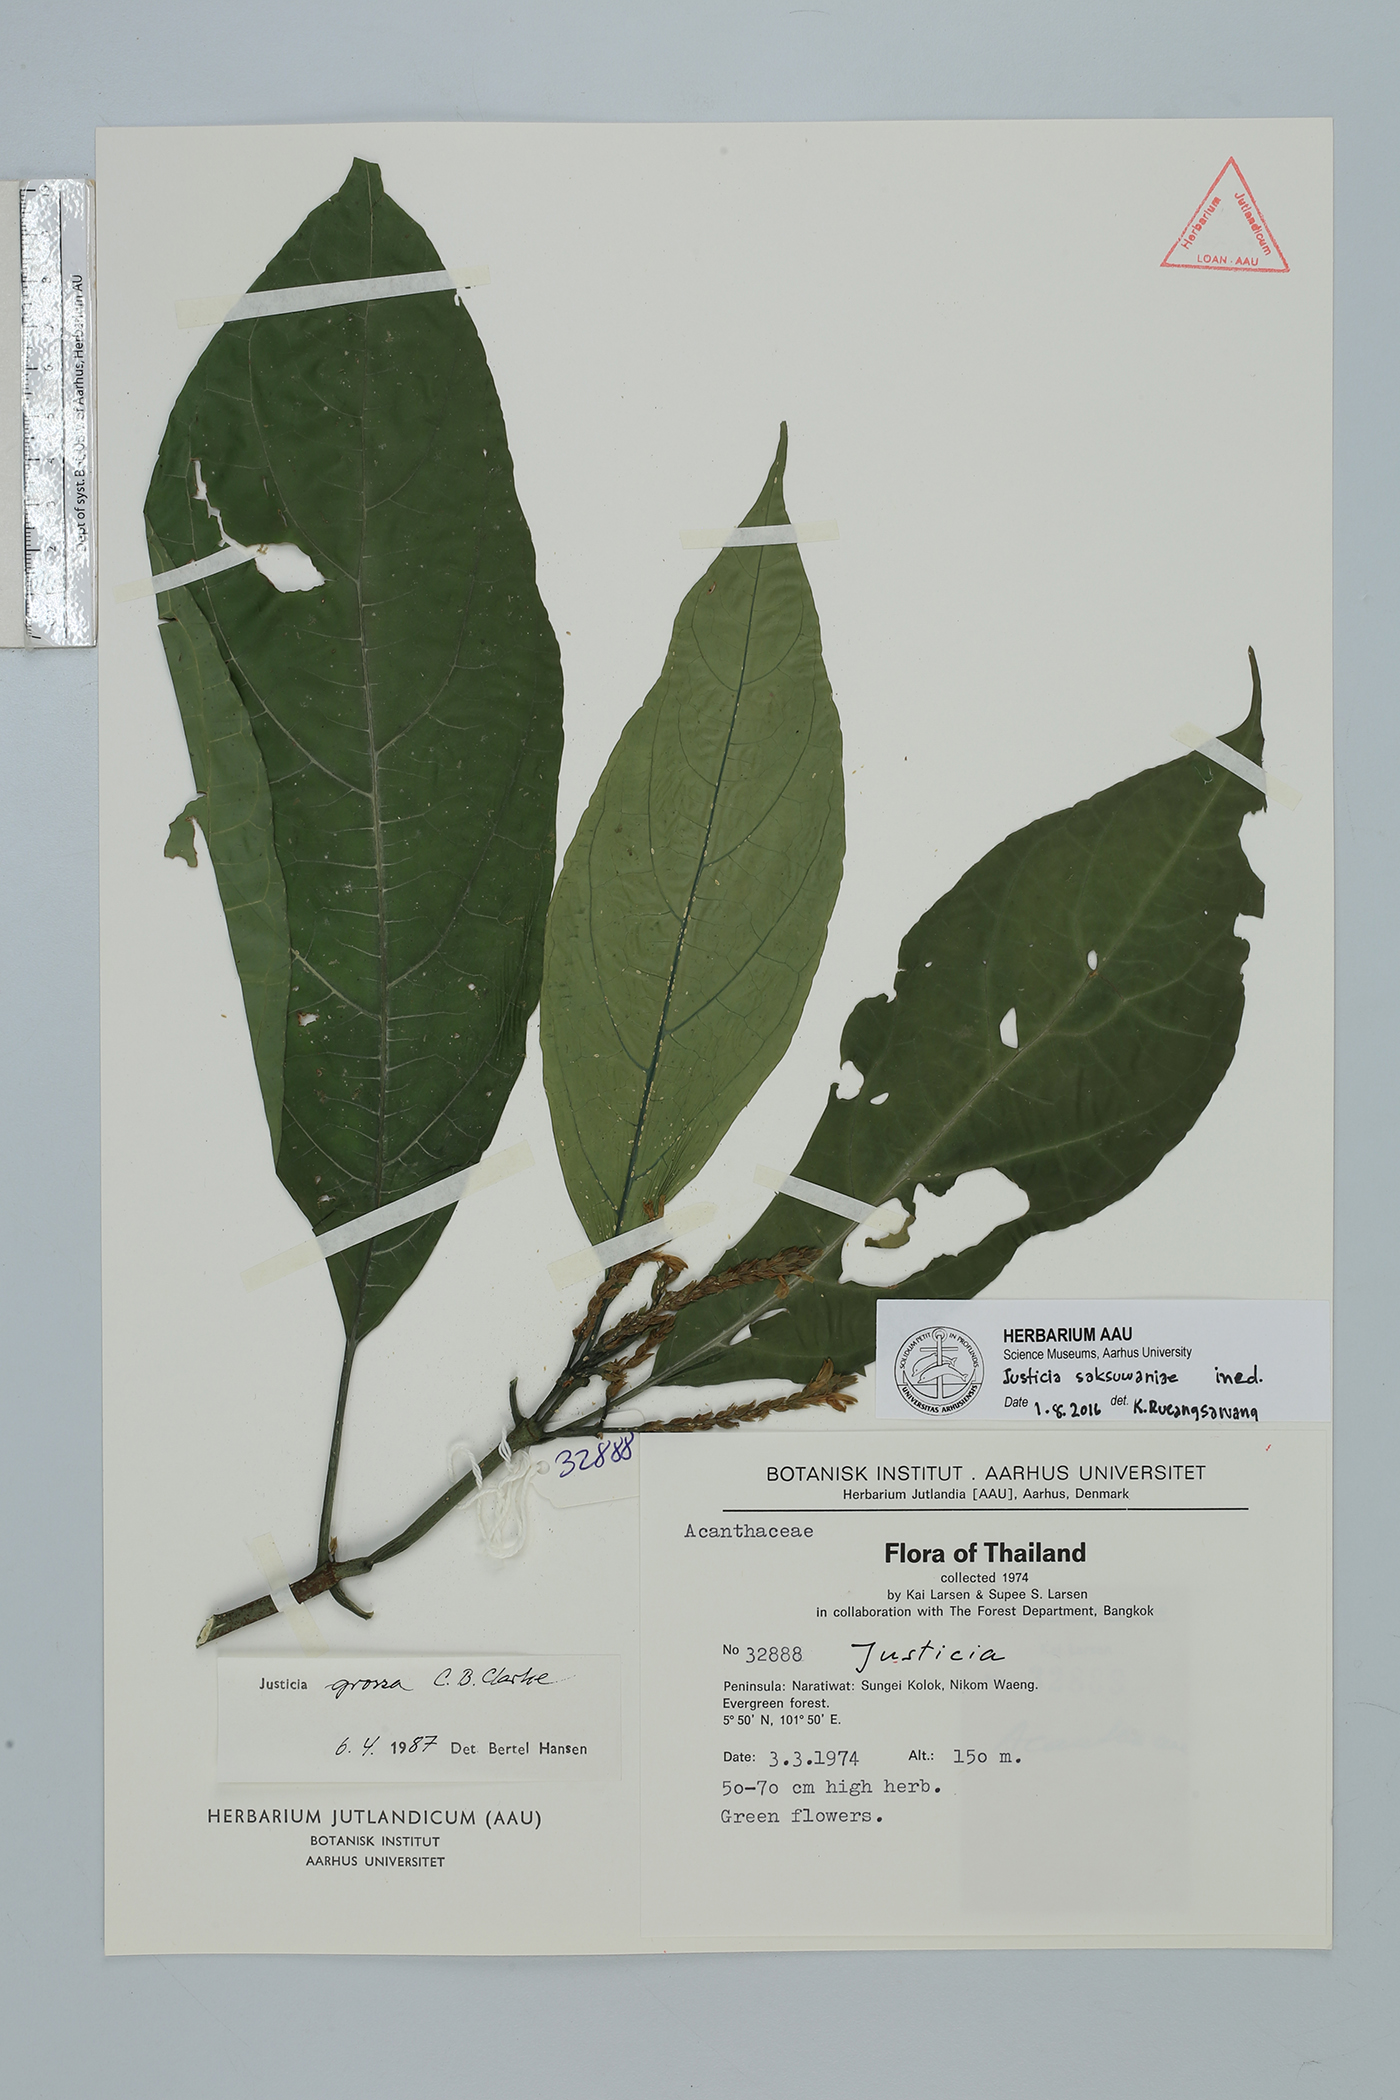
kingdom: Plantae
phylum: Tracheophyta
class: Magnoliopsida
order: Lamiales
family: Acanthaceae
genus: Justicia
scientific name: Justicia saksuwaniae
